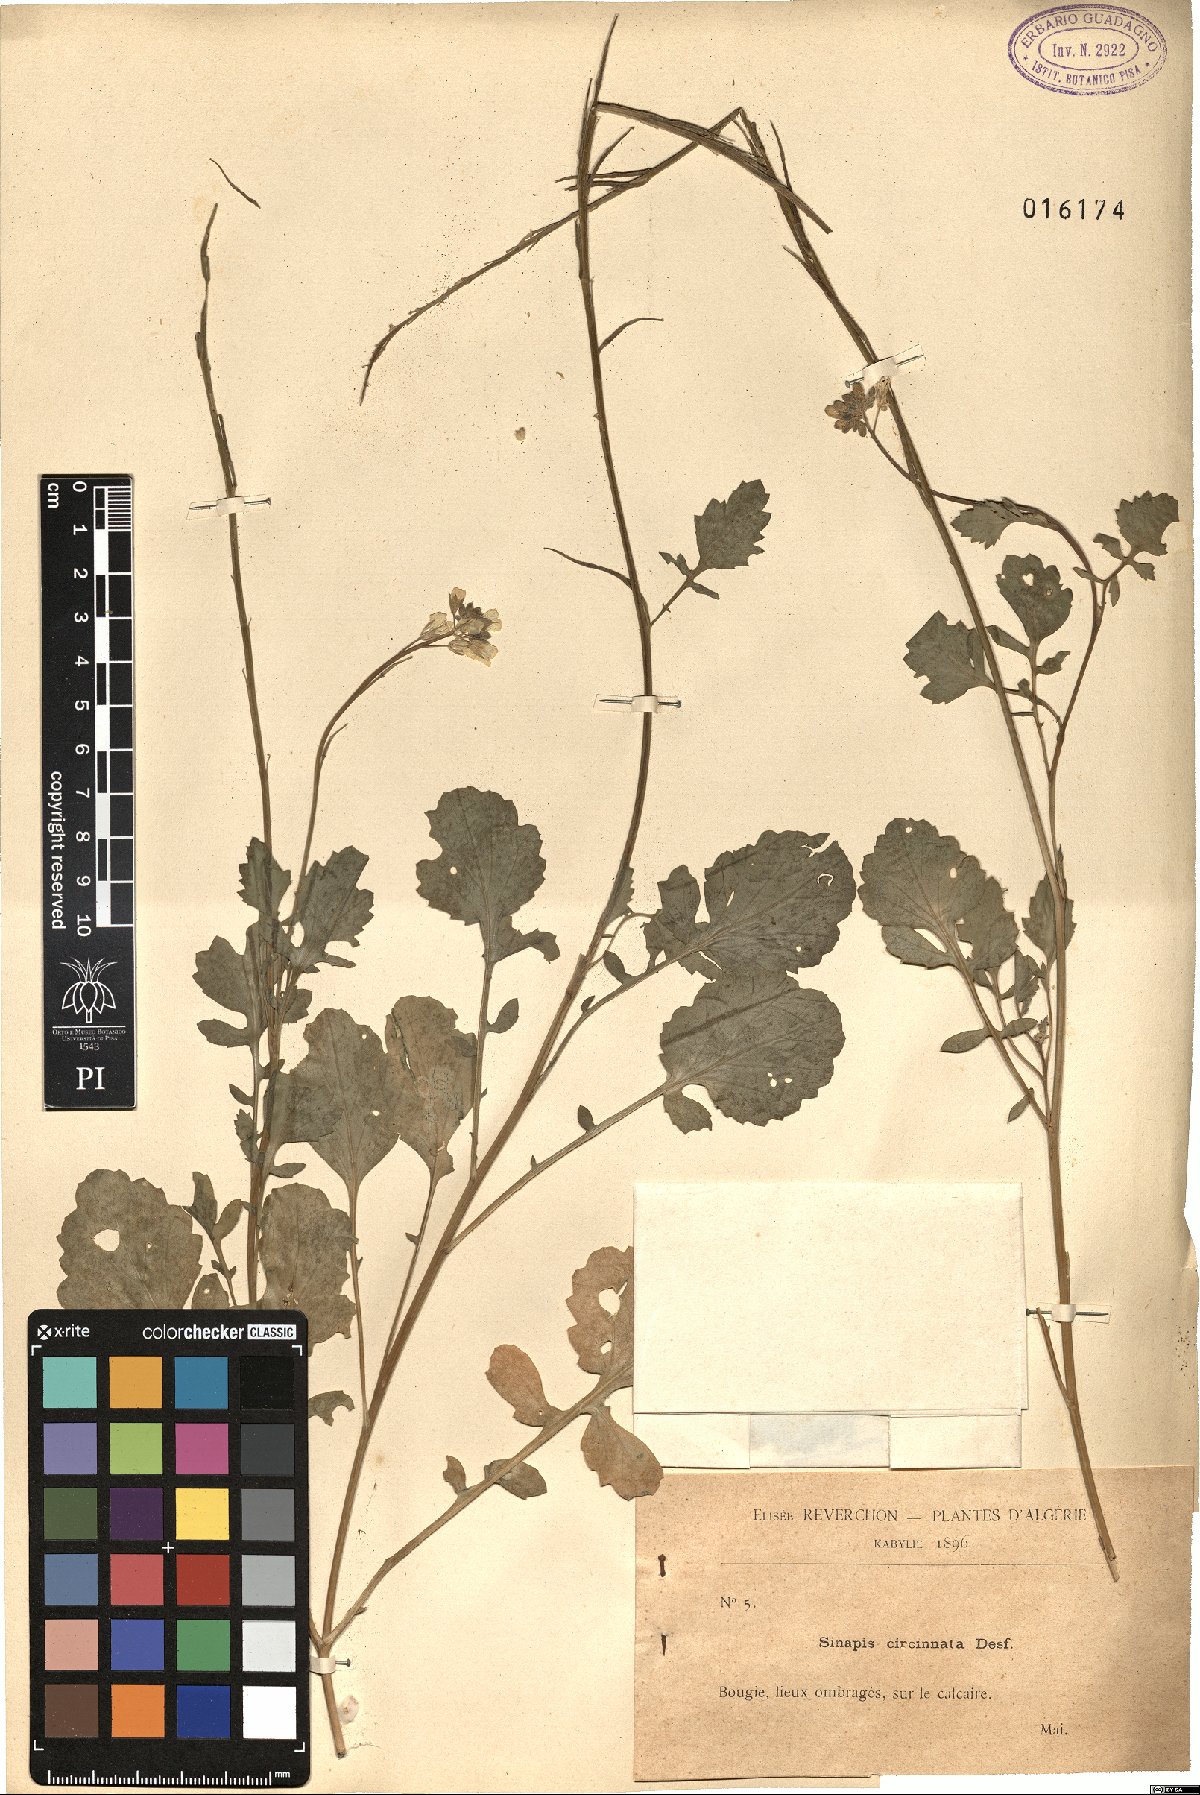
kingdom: Plantae
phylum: Tracheophyta
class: Magnoliopsida
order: Brassicales
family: Brassicaceae
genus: Sinapis
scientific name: Sinapis pubescens
